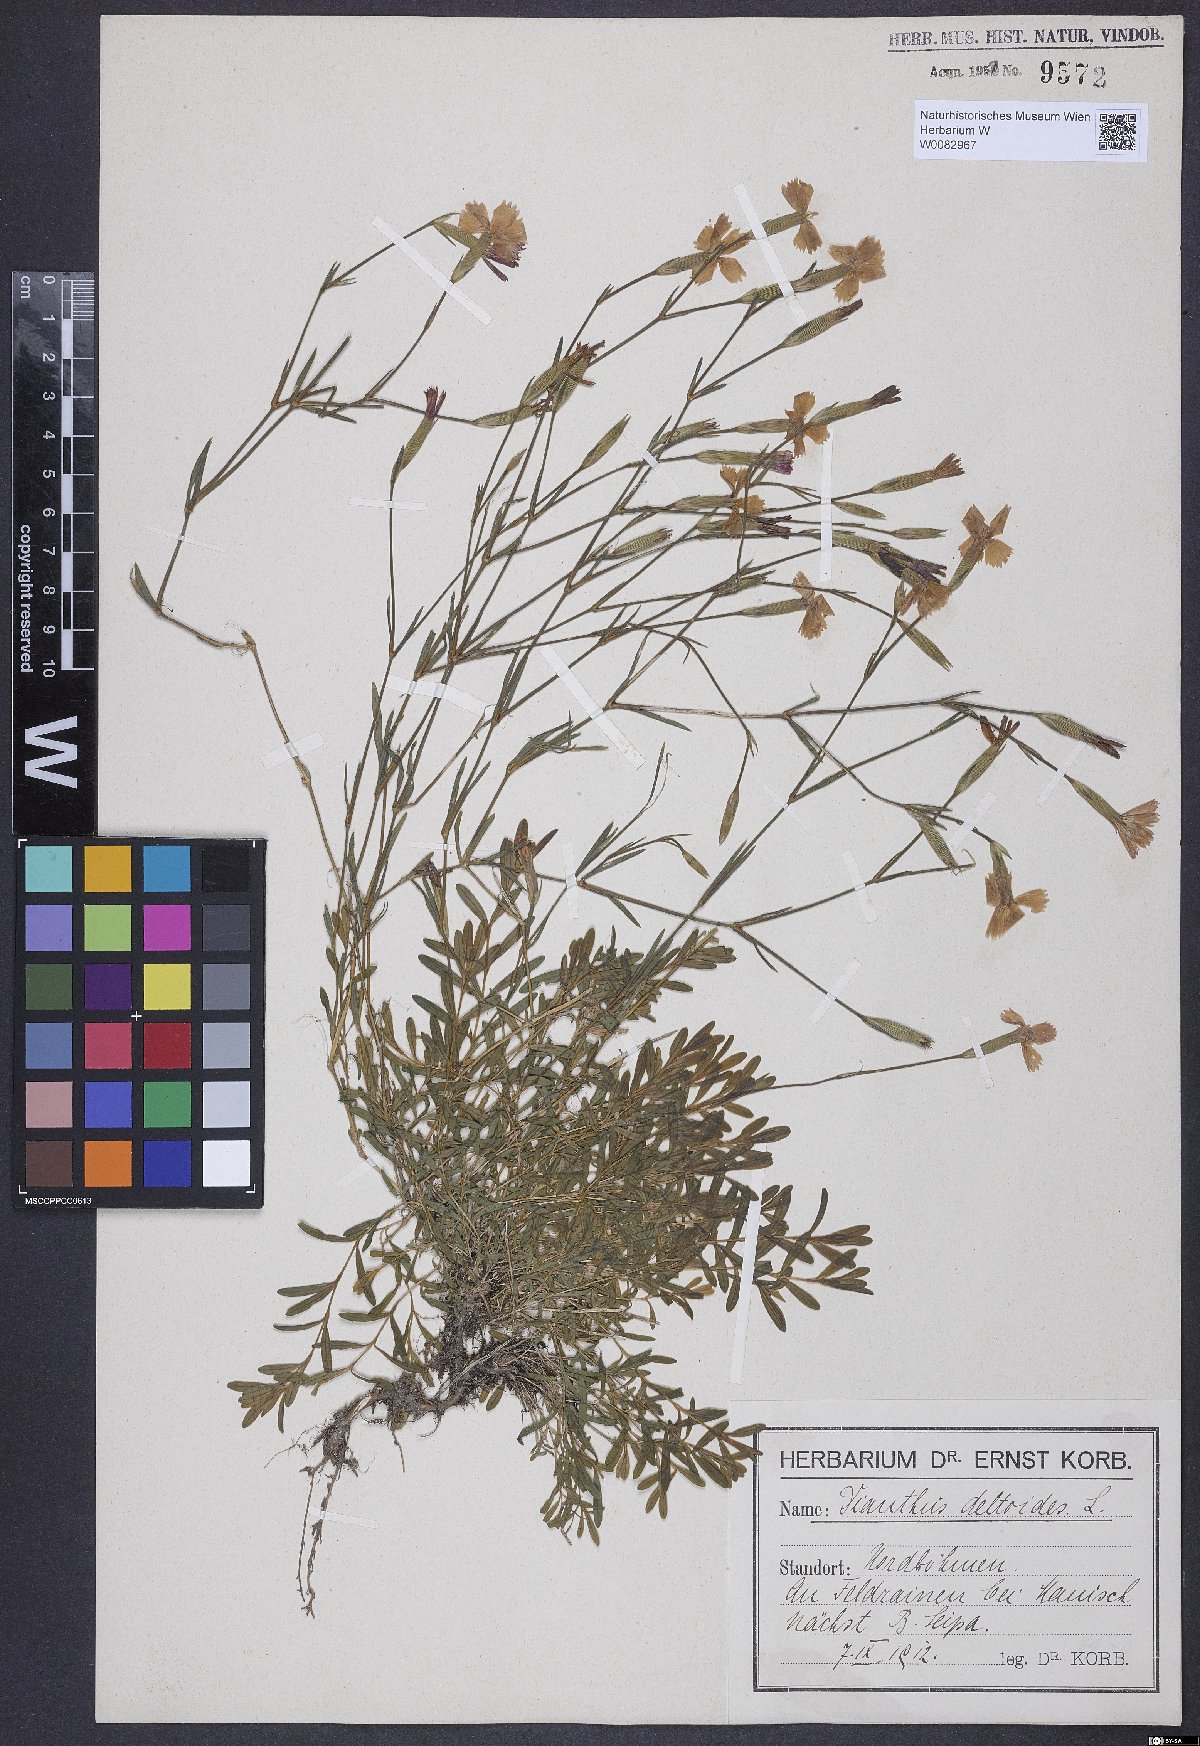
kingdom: Plantae
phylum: Tracheophyta
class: Magnoliopsida
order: Caryophyllales
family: Caryophyllaceae
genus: Dianthus
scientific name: Dianthus deltoides
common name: Maiden pink
